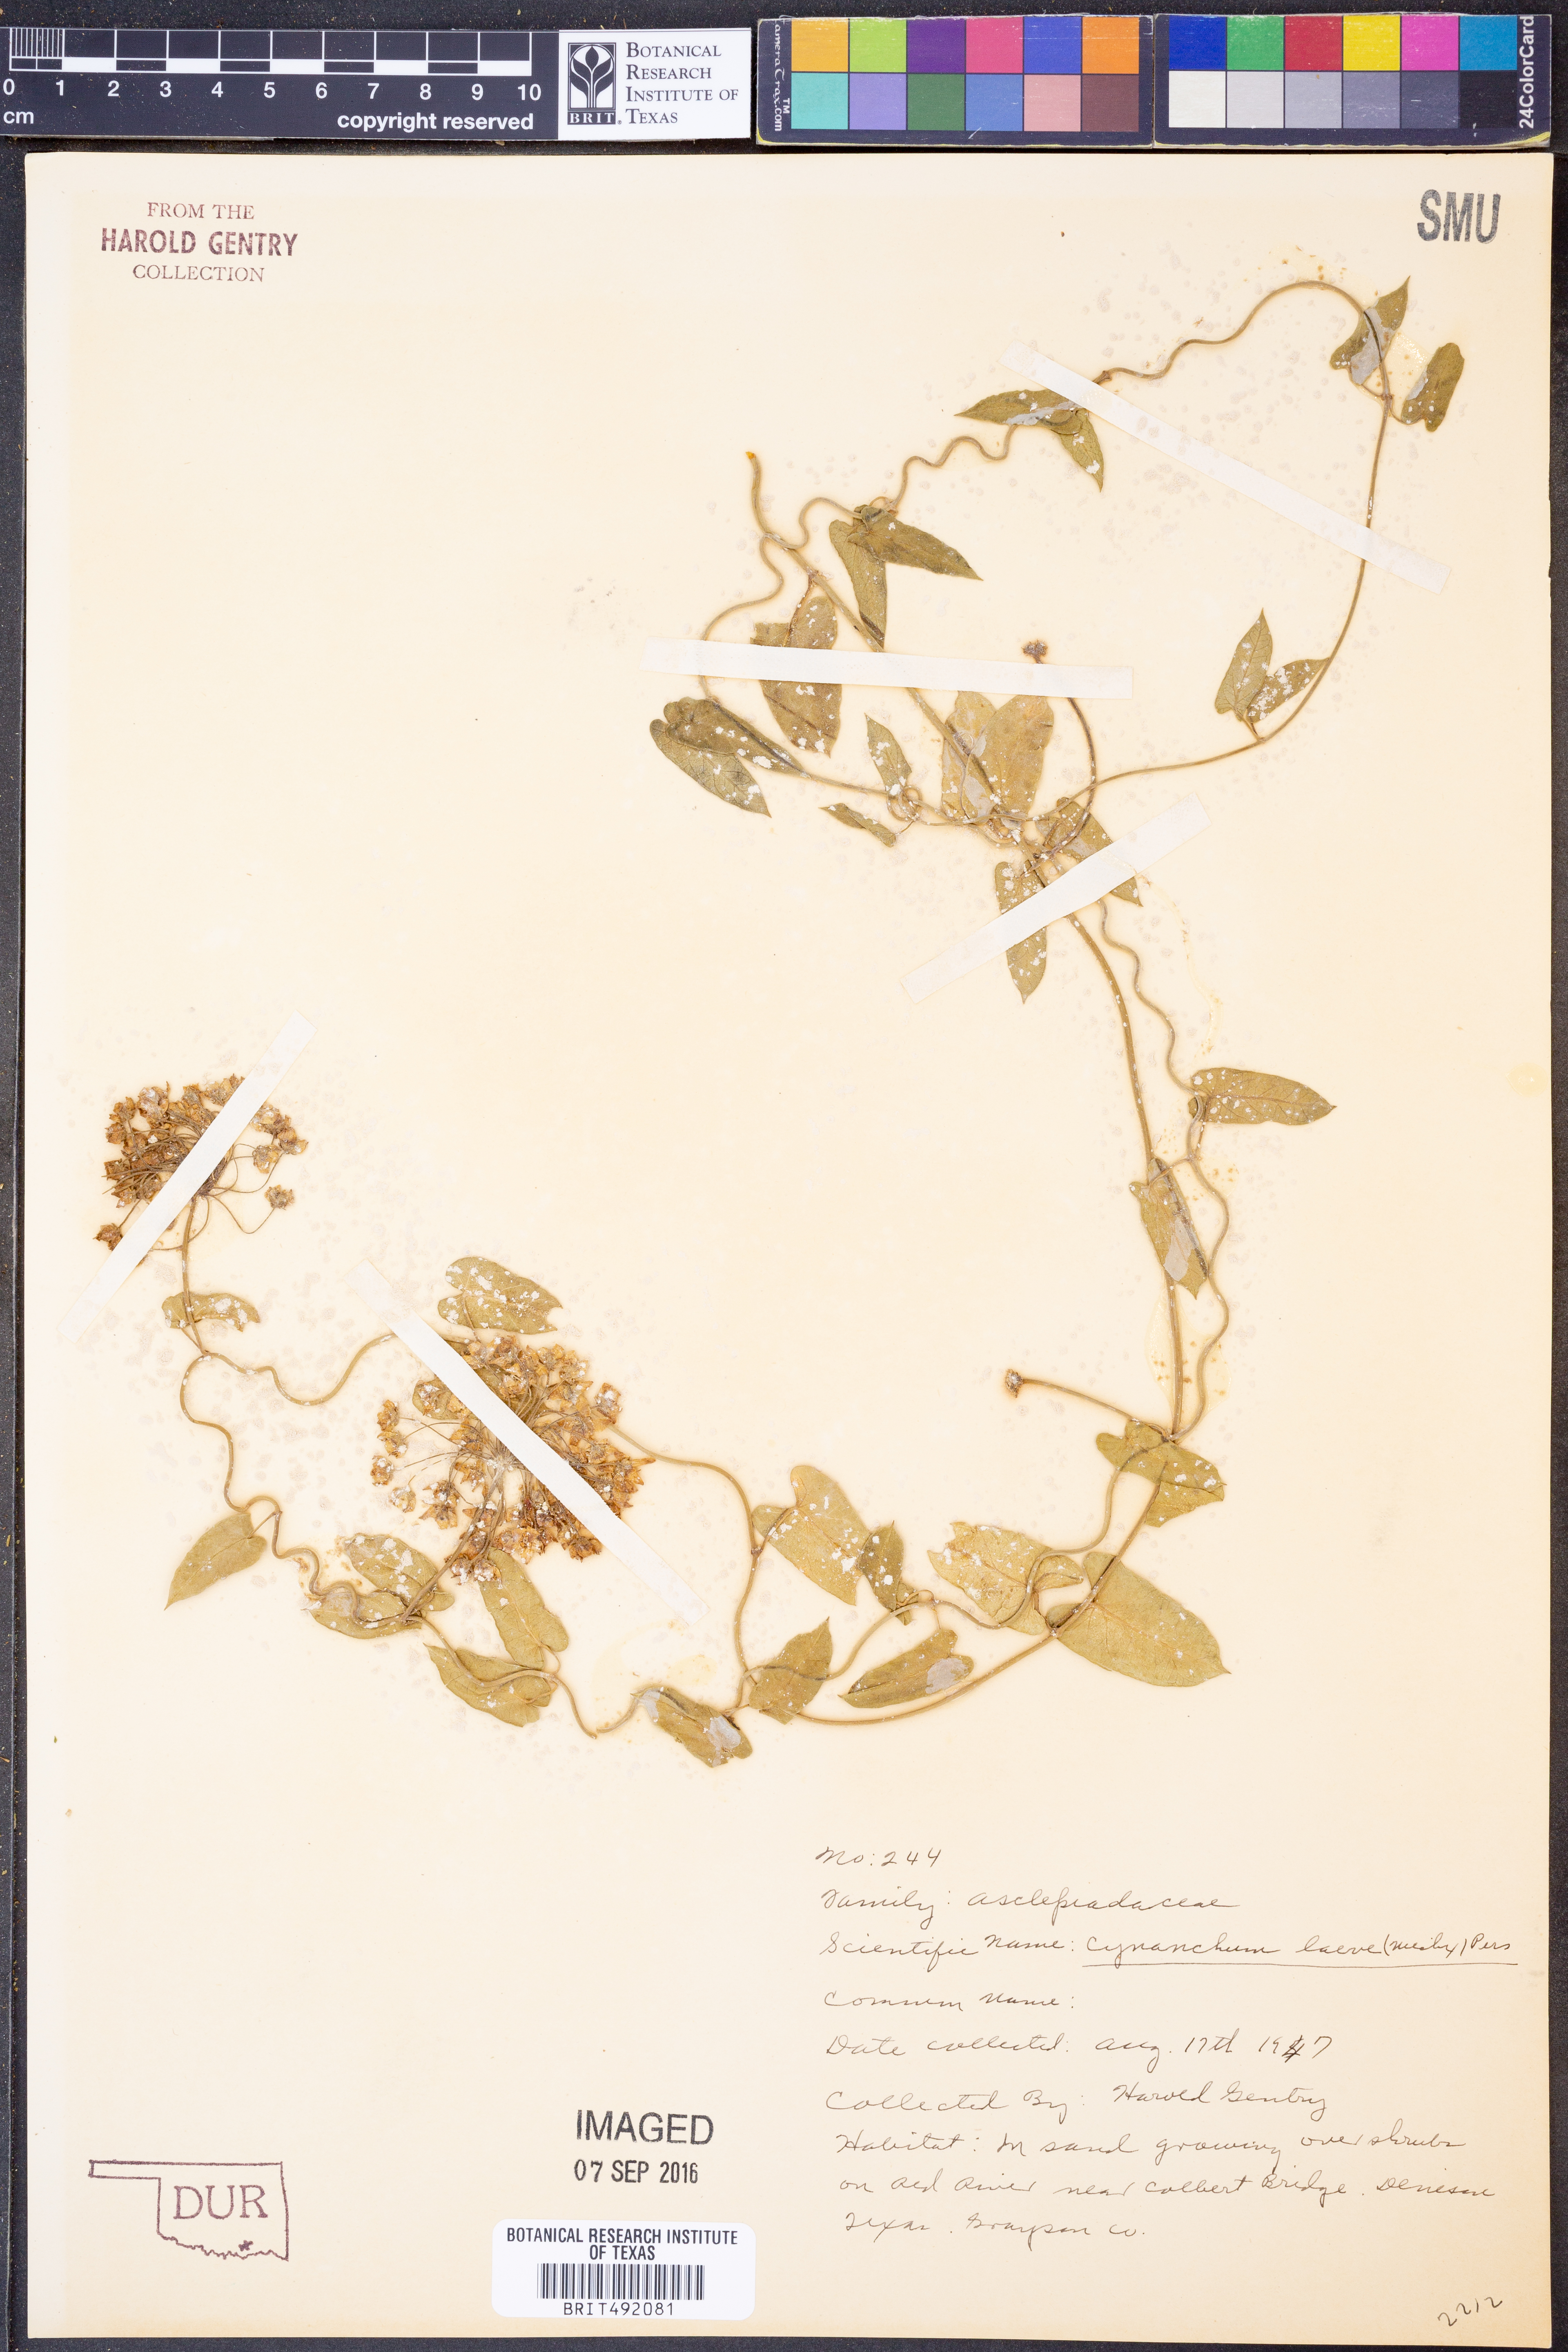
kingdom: Plantae
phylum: Tracheophyta
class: Magnoliopsida
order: Gentianales
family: Apocynaceae
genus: Cynanchum
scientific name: Cynanchum laeve
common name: Sandvine
